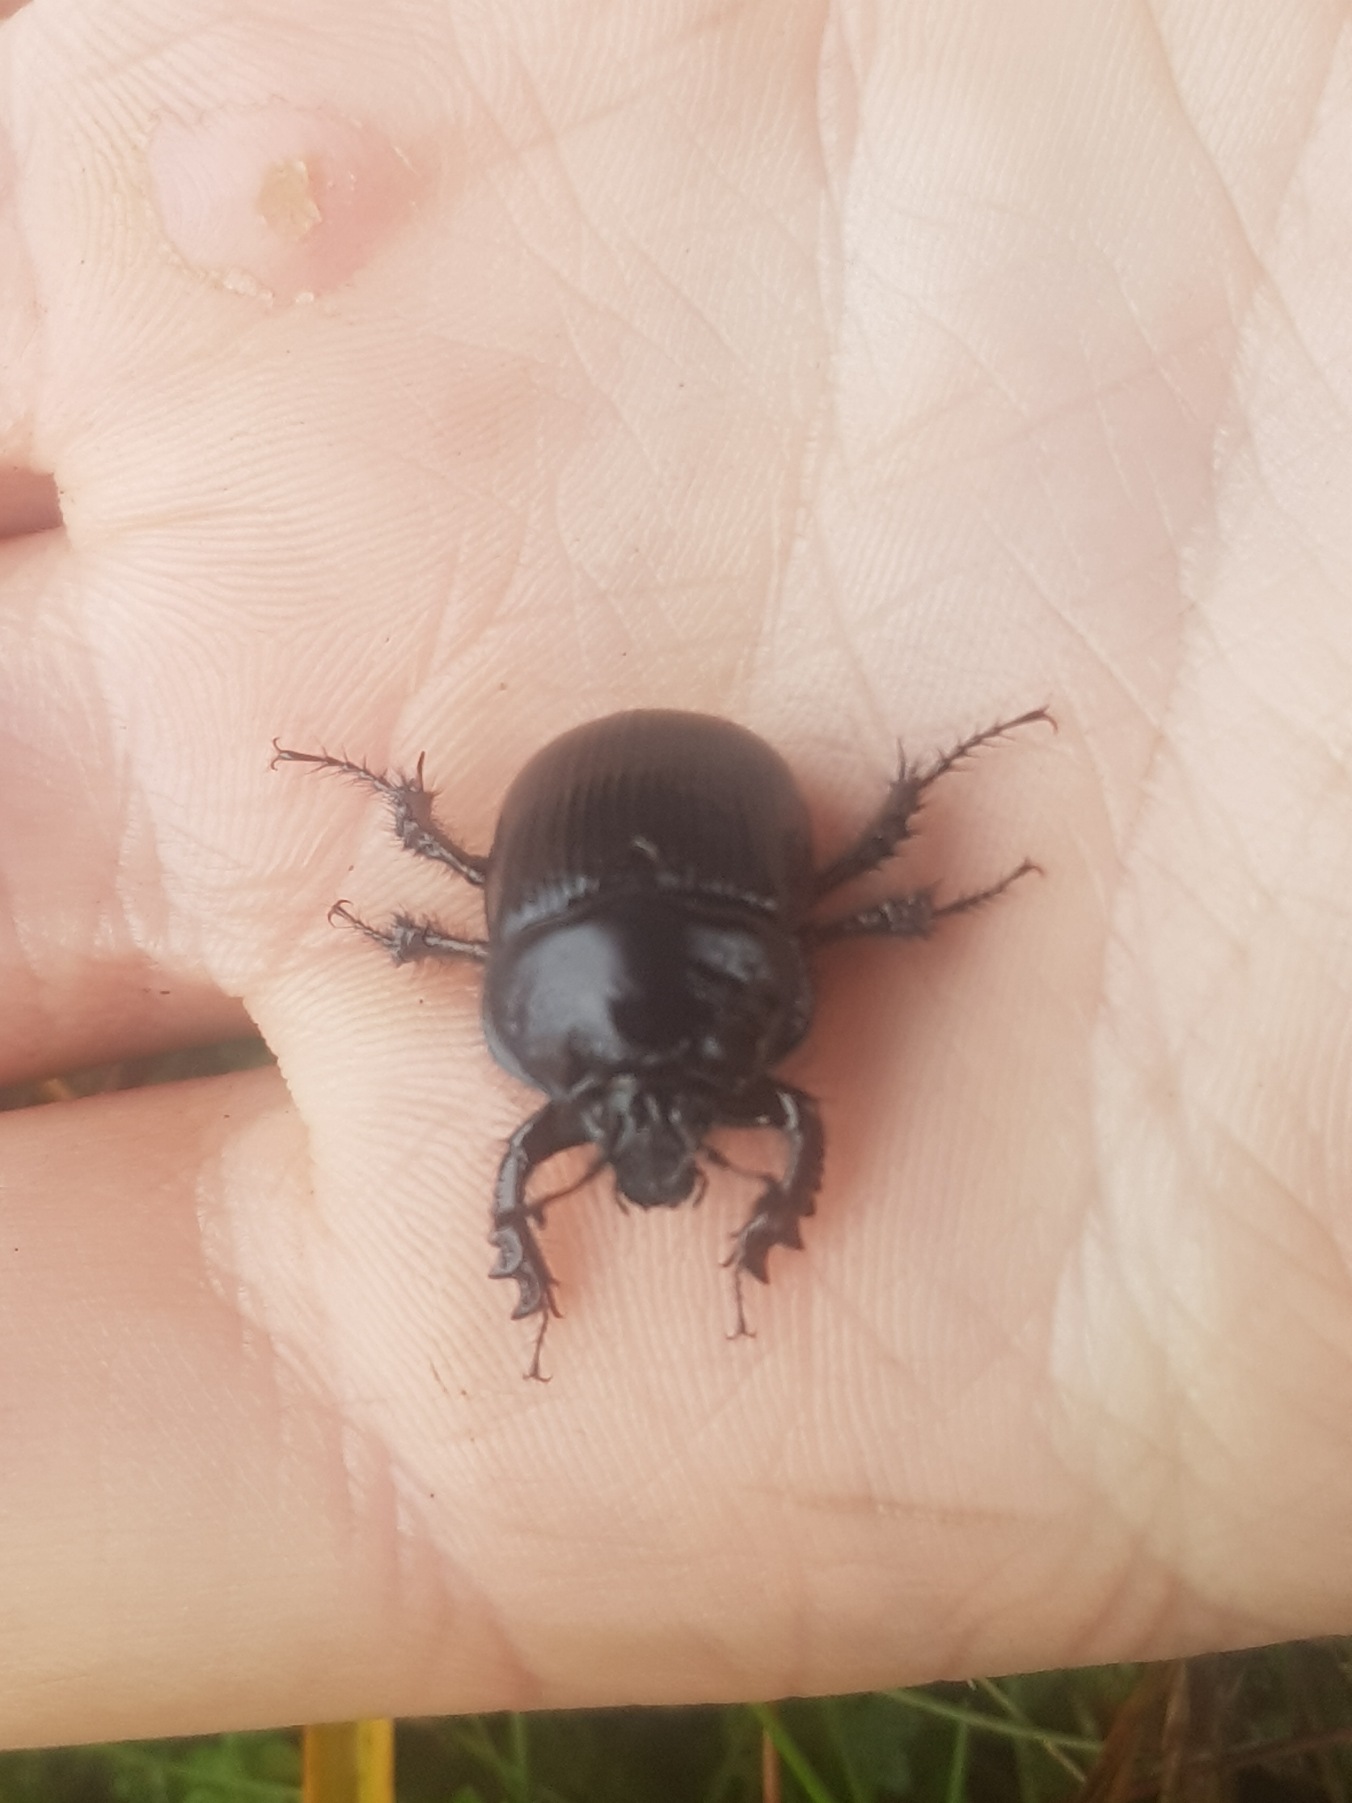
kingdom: Animalia
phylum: Arthropoda
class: Insecta
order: Coleoptera
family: Geotrupidae
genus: Typhaeus
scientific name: Typhaeus typhoeus
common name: Trehornet skarnbasse
